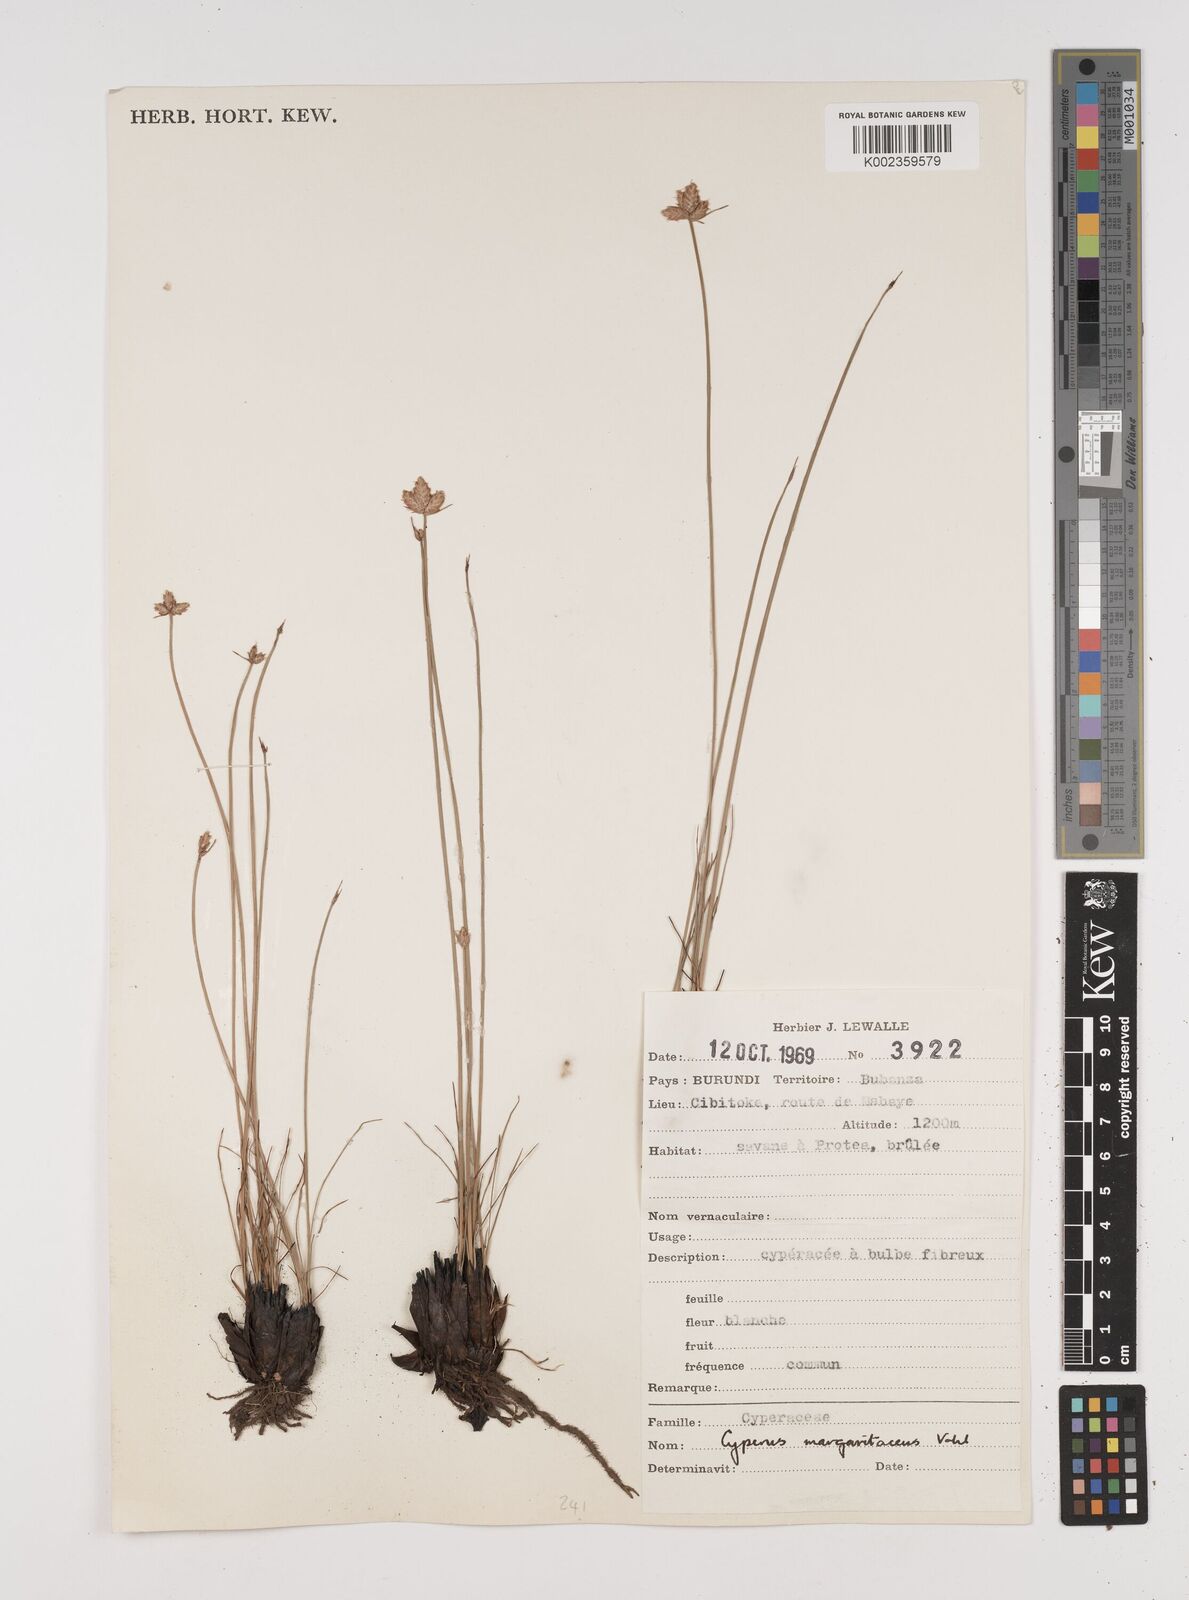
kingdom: Plantae
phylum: Tracheophyta
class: Liliopsida
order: Poales
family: Cyperaceae
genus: Cyperus
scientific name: Cyperus nduru
